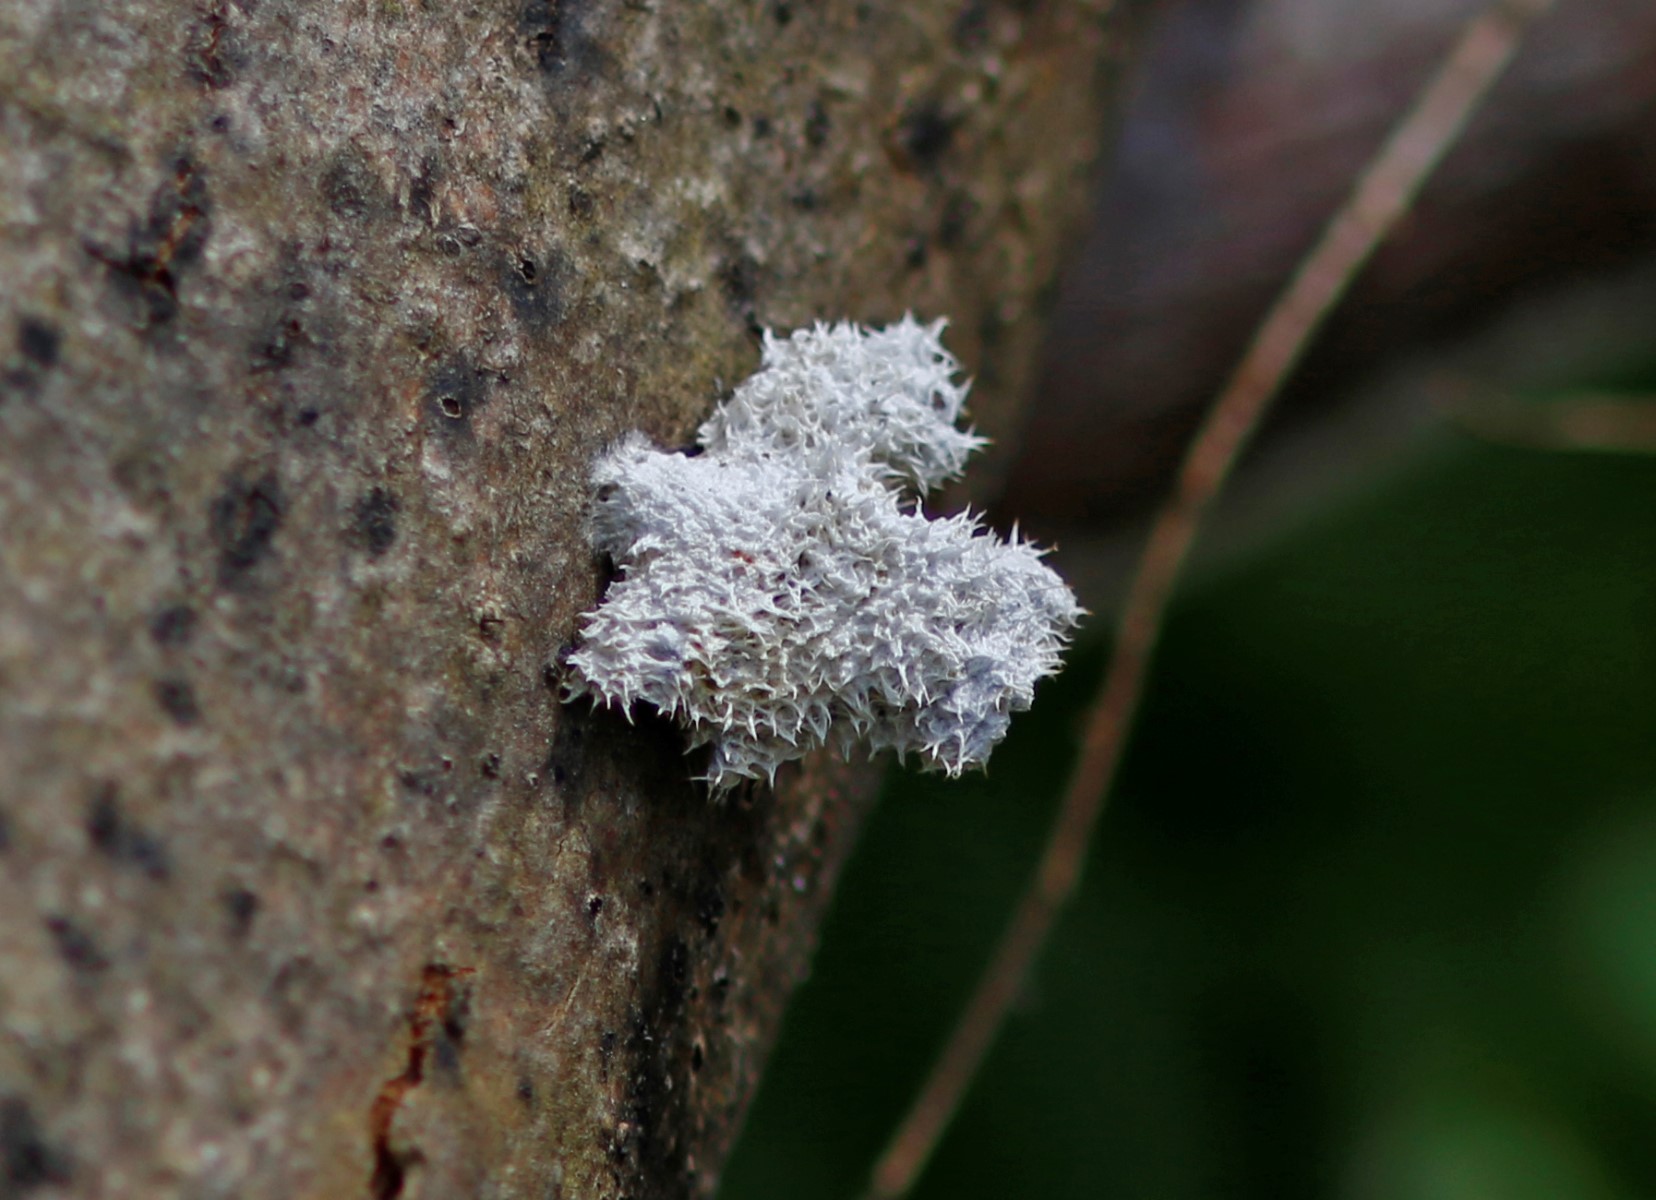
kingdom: Fungi
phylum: Basidiomycota
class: Agaricomycetes
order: Agaricales
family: Schizophyllaceae
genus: Schizophyllum
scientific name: Schizophyllum commune
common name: kløvblad
